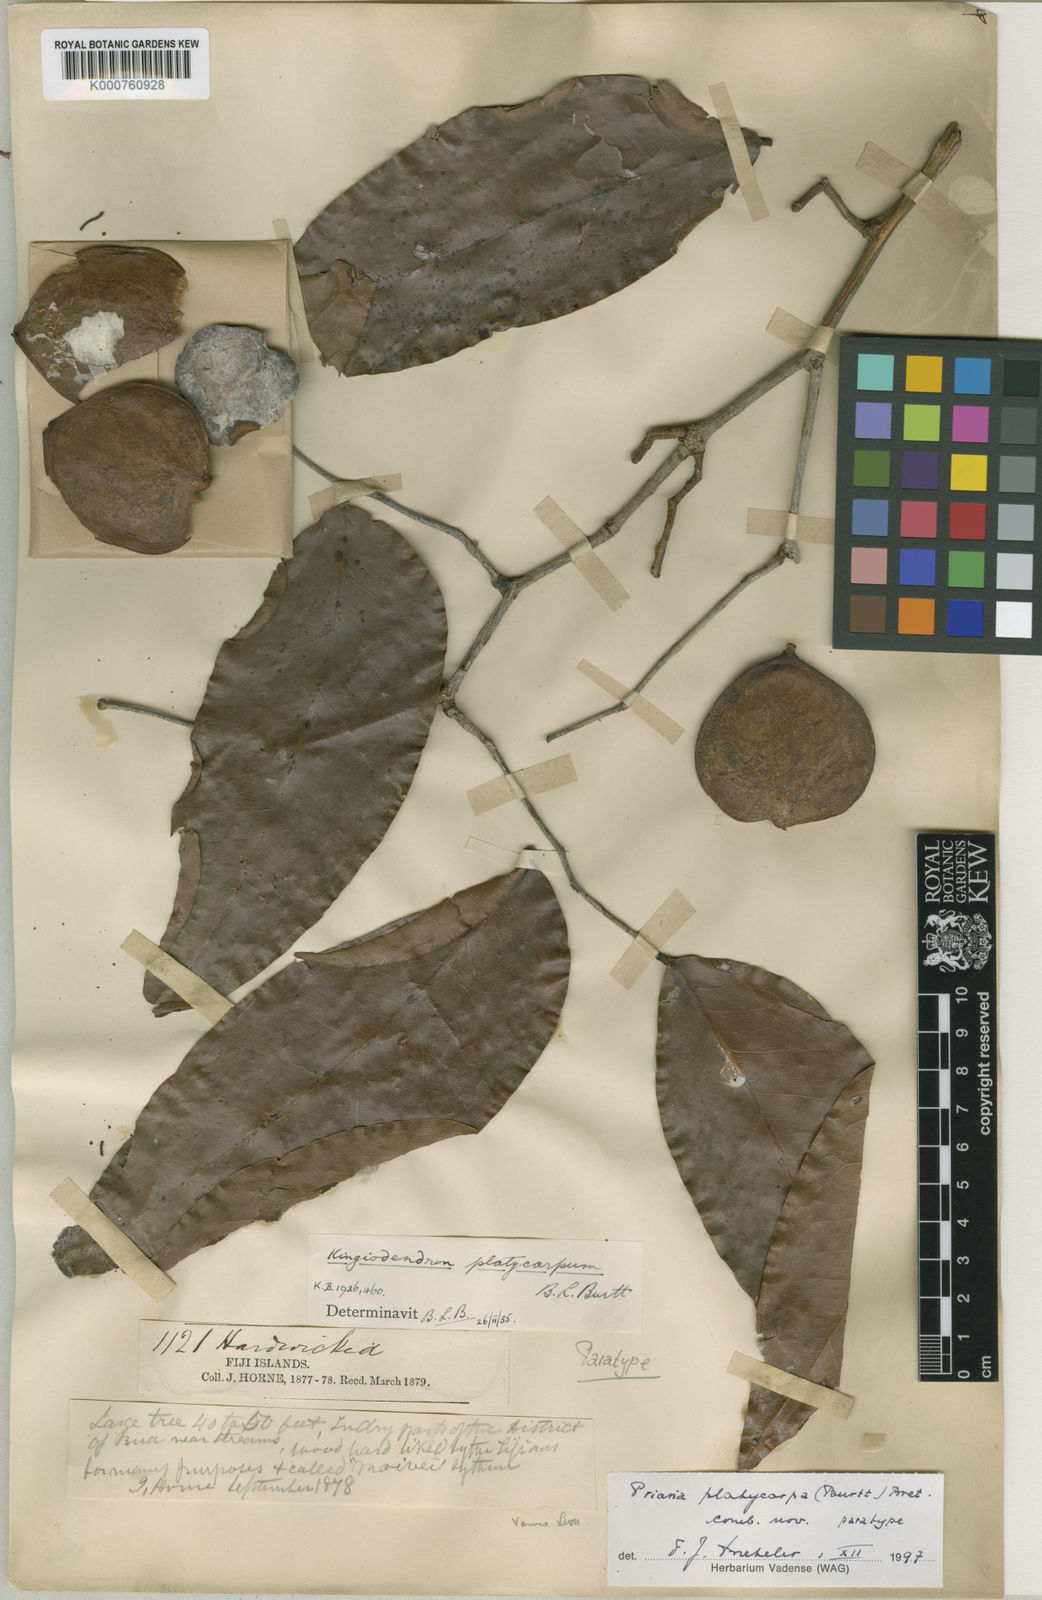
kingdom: Plantae
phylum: Tracheophyta
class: Magnoliopsida
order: Fabales
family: Fabaceae
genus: Prioria
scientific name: Prioria platycarpa
